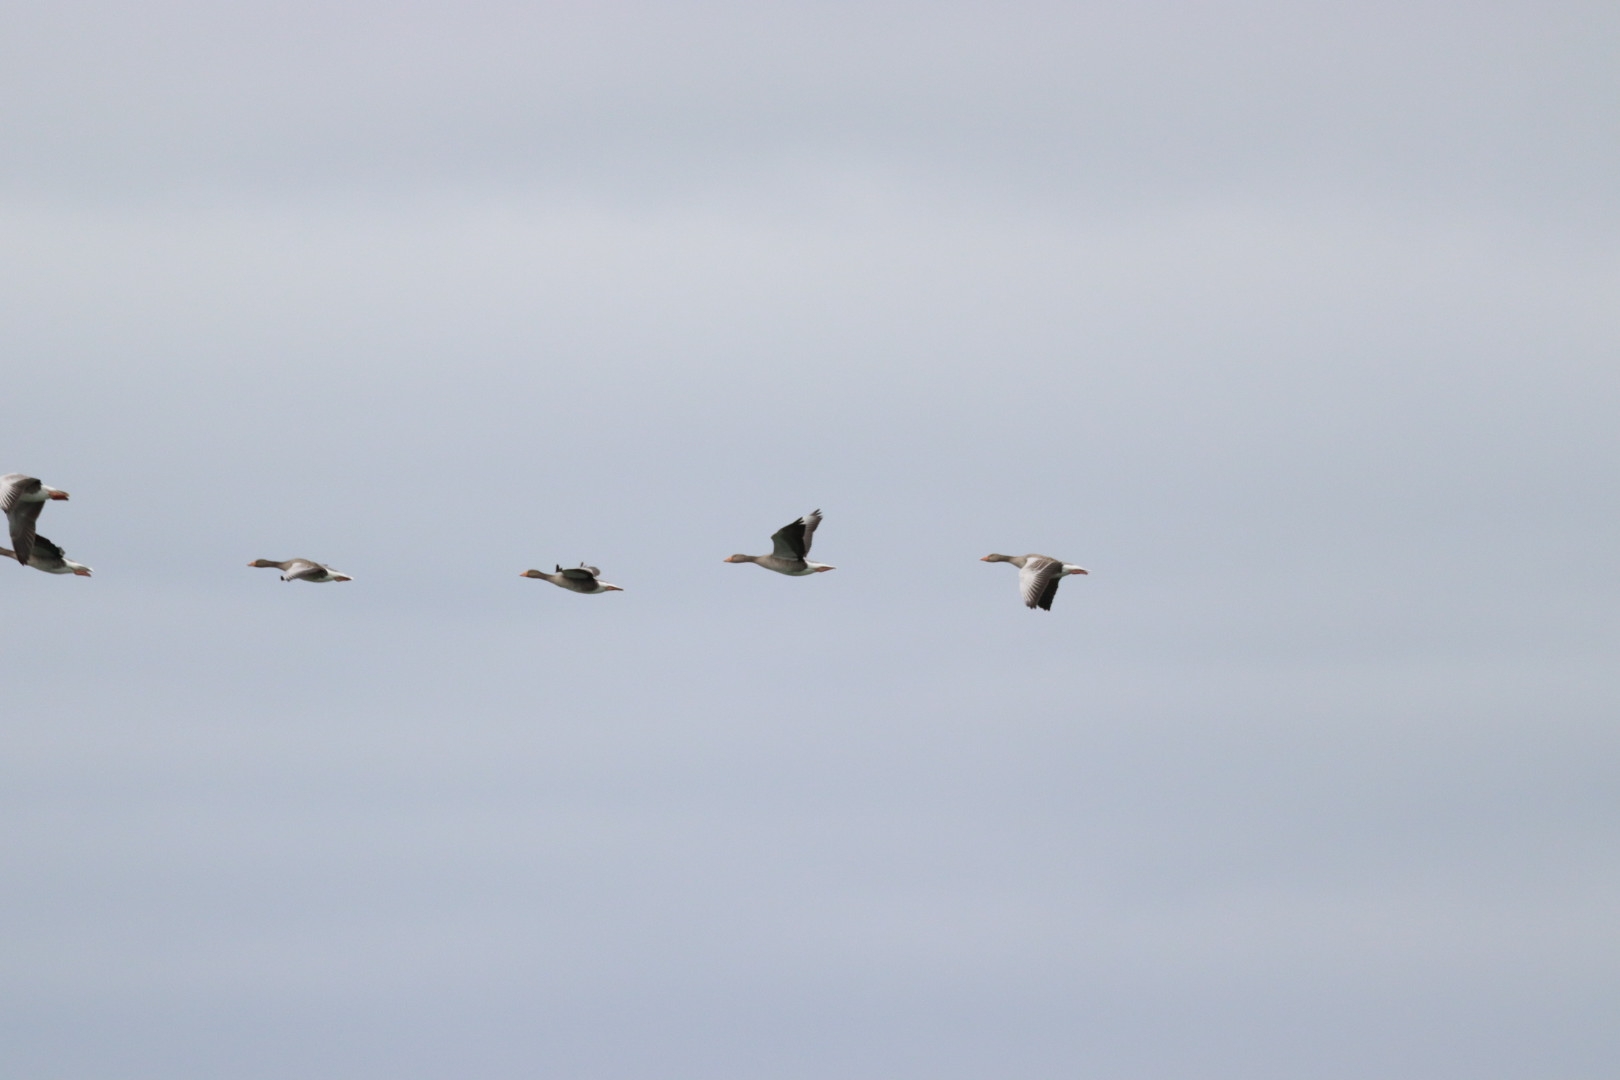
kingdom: Animalia
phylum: Chordata
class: Aves
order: Anseriformes
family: Anatidae
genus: Anser
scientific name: Anser anser
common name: Grågås
